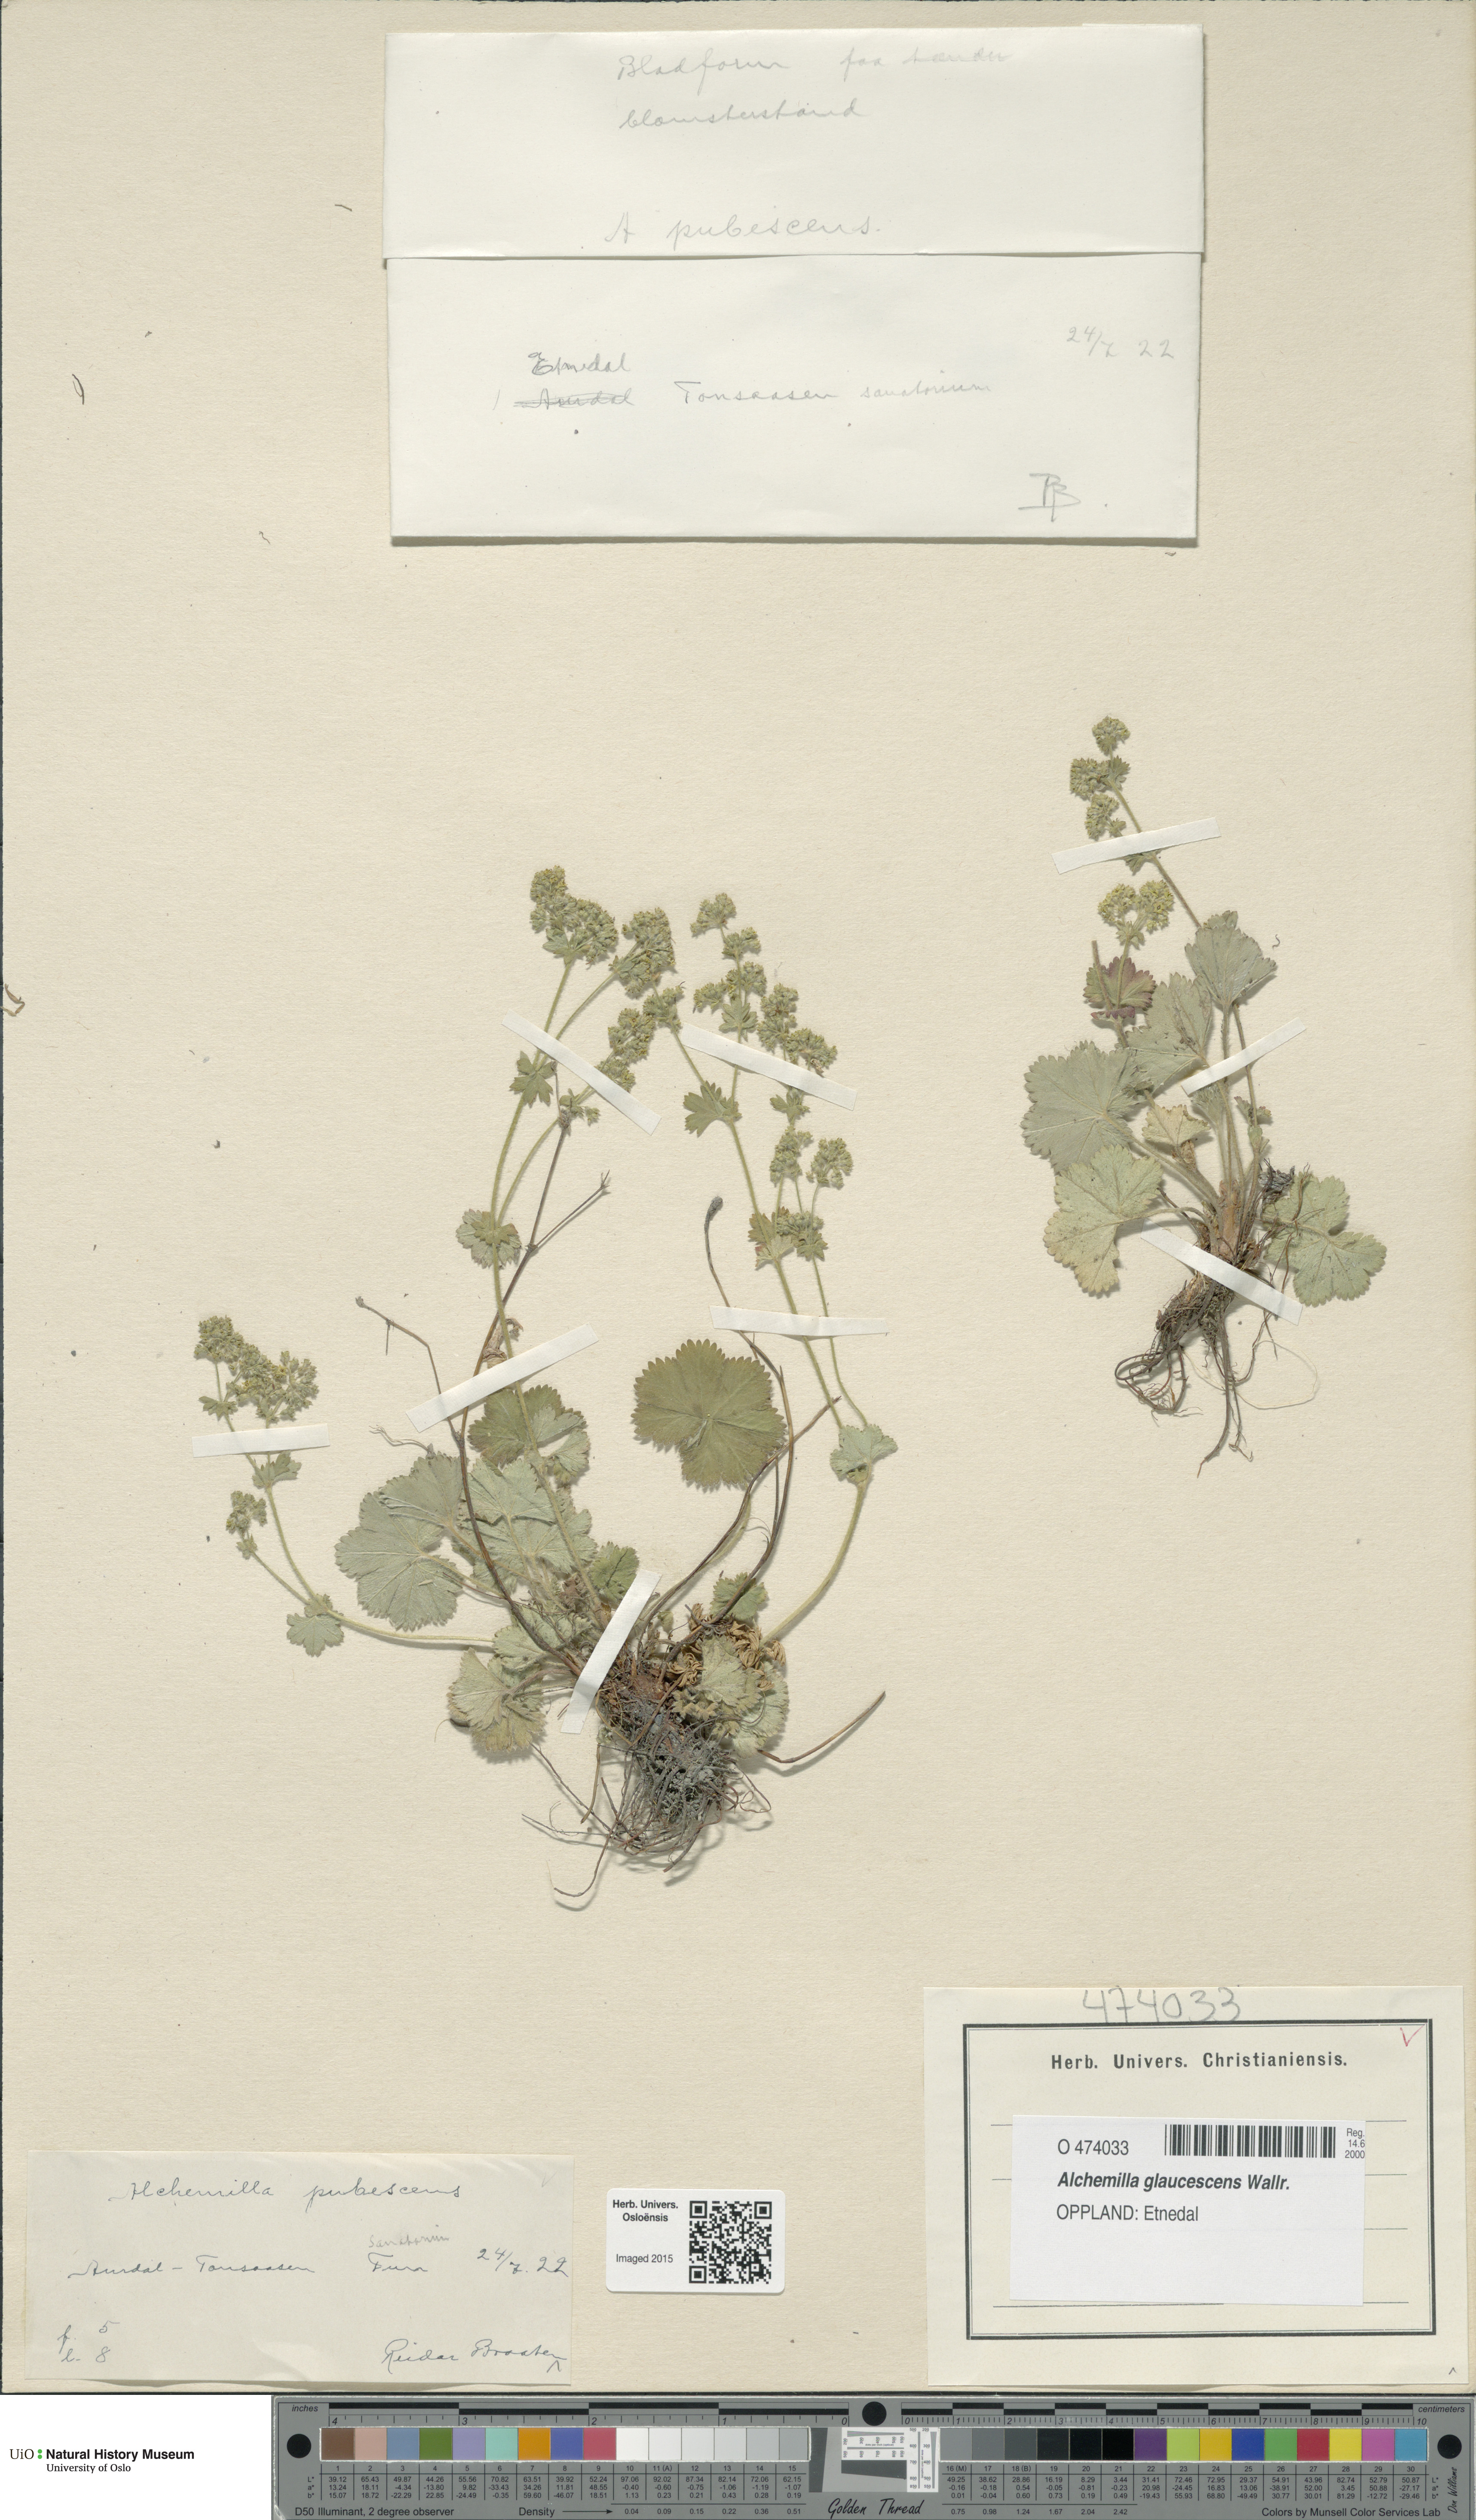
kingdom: Plantae
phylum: Tracheophyta
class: Magnoliopsida
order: Rosales
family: Rosaceae
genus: Alchemilla
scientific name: Alchemilla glaucescens
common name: Silky lady's mantle
